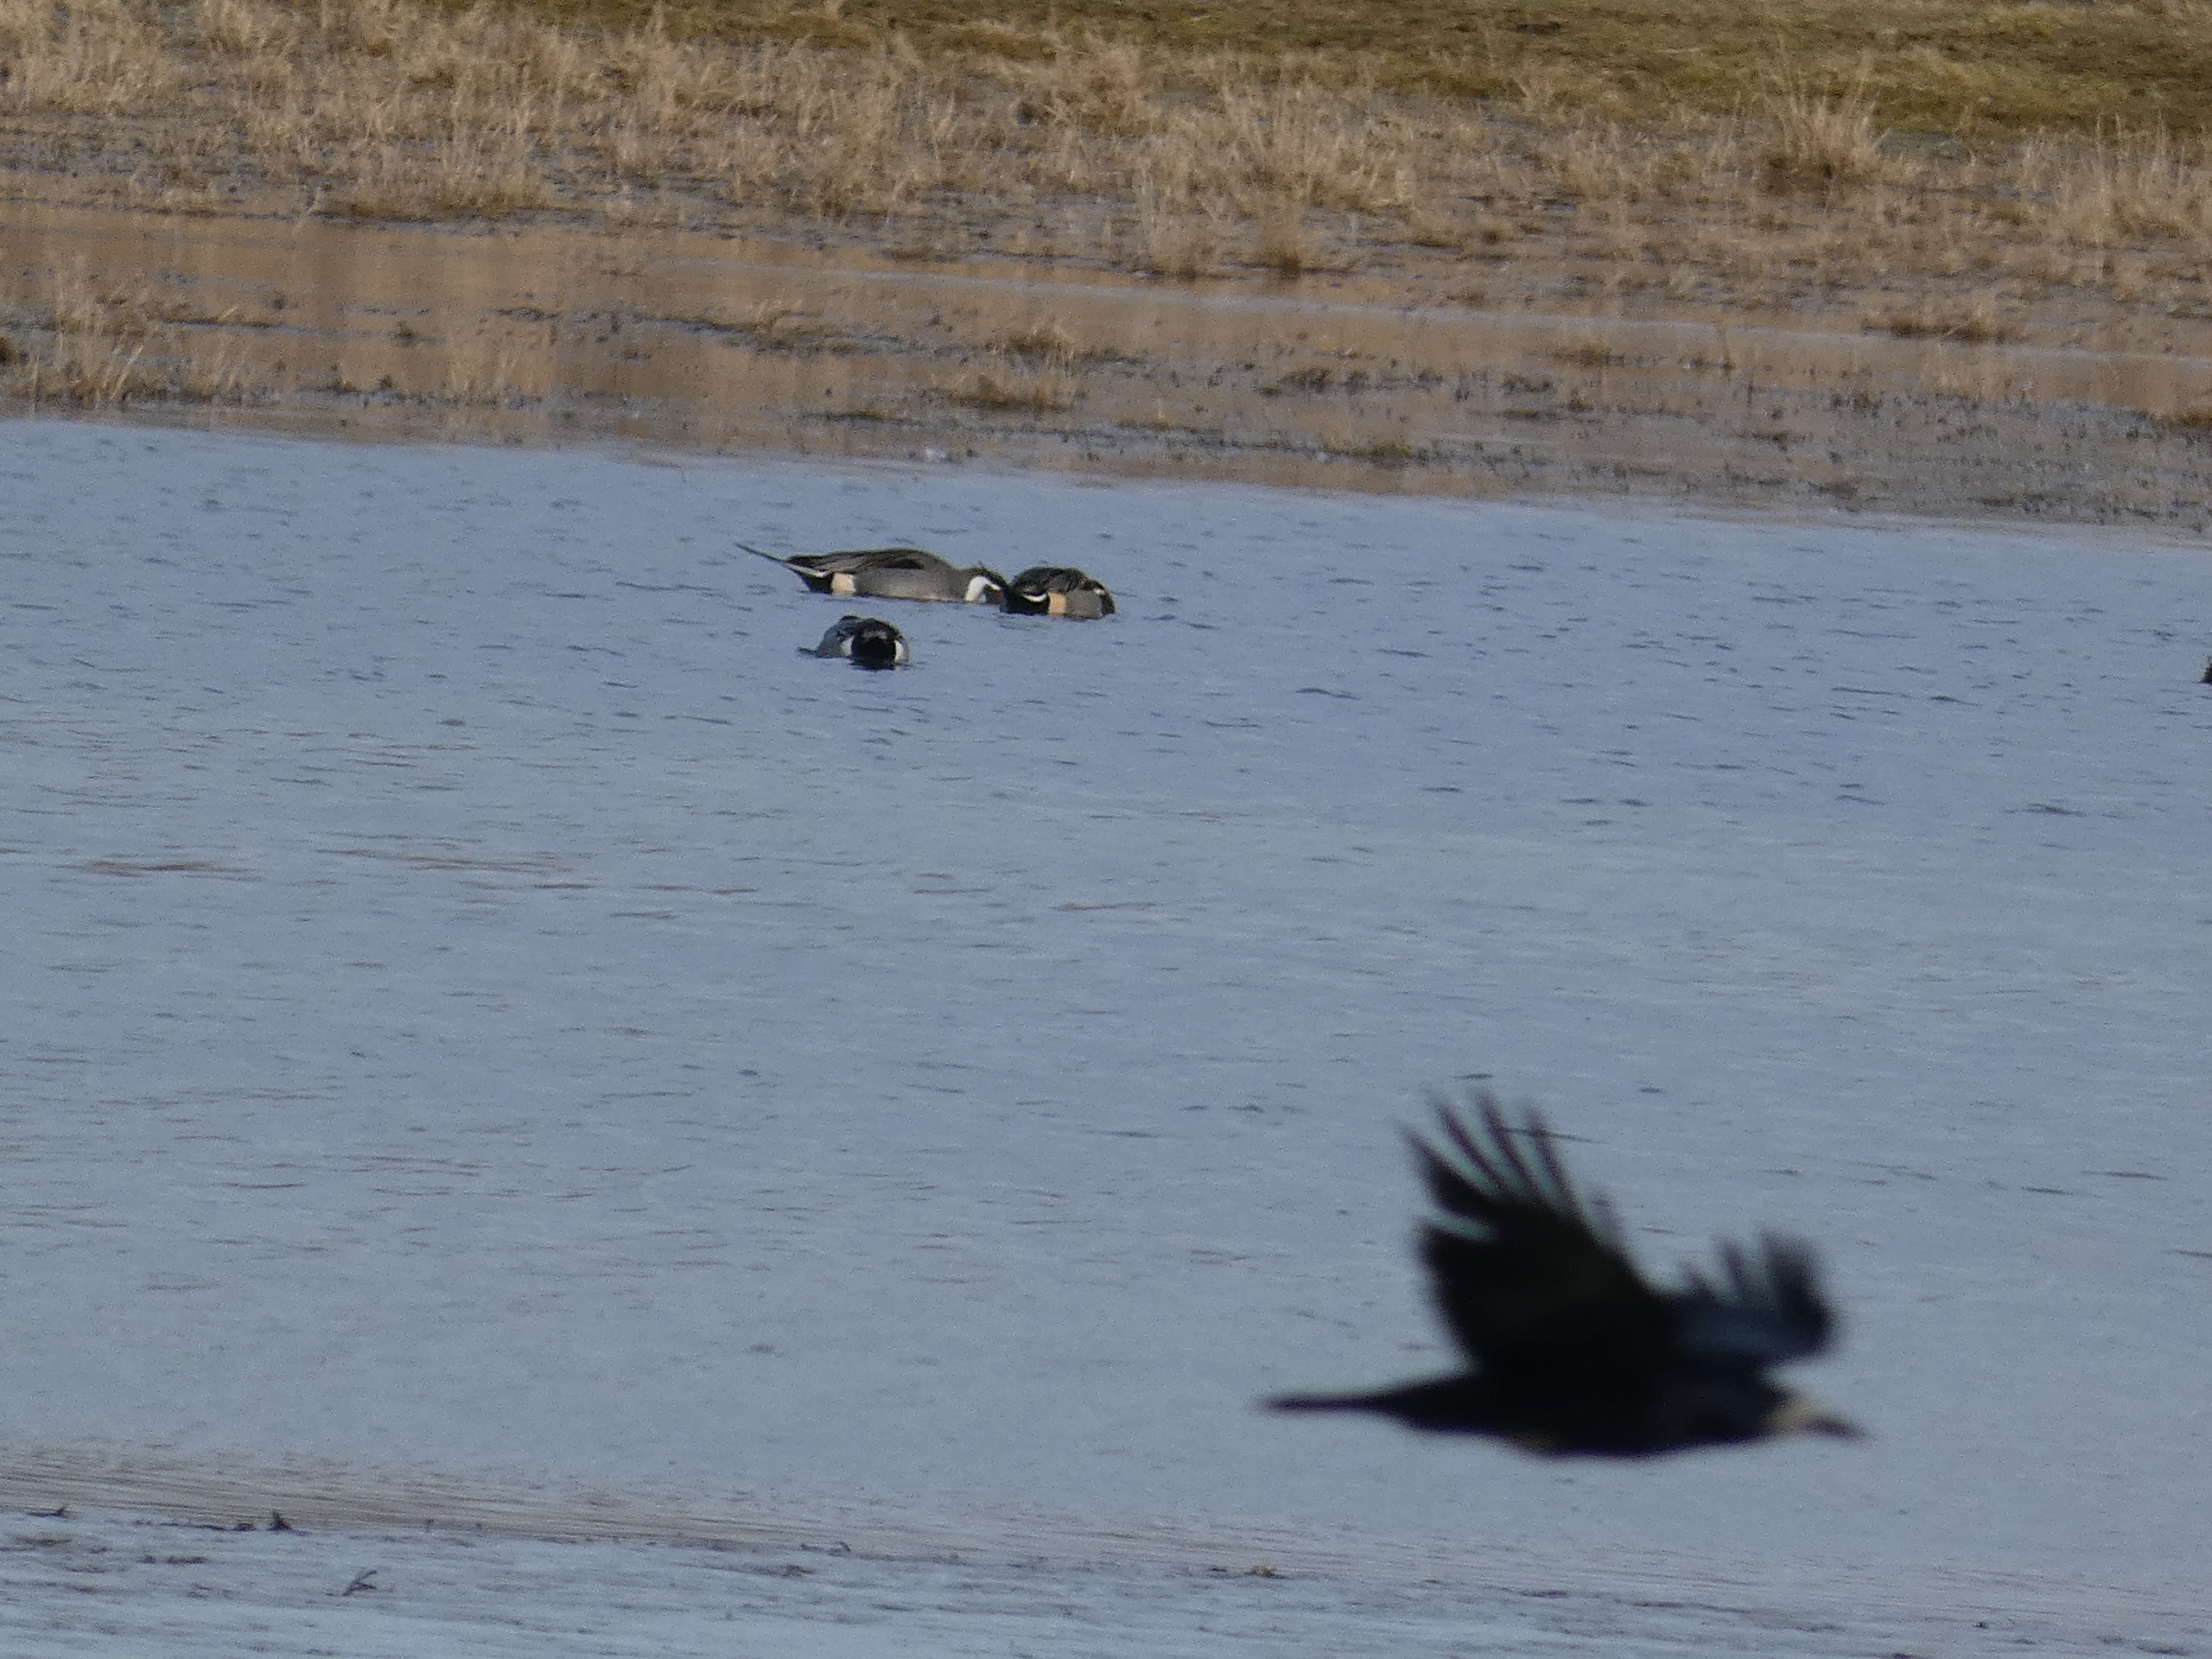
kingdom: Animalia
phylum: Chordata
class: Aves
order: Passeriformes
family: Corvidae
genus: Corvus
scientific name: Corvus frugilegus
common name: Råge
